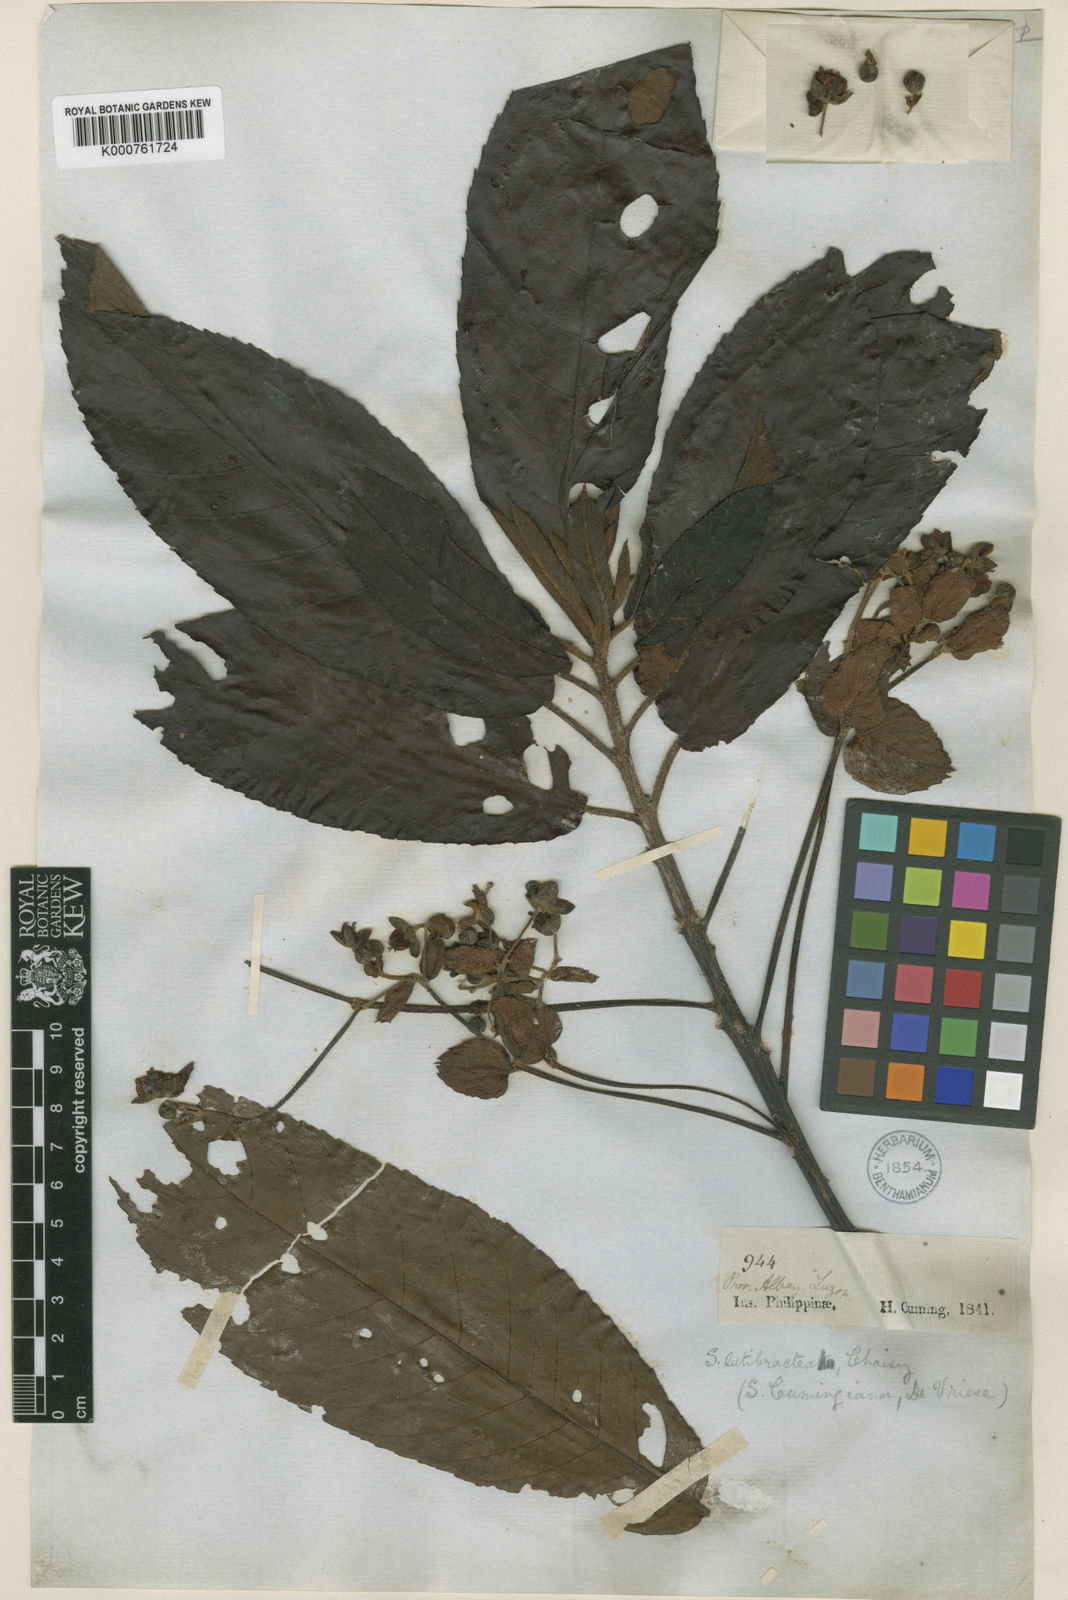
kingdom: Plantae
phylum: Tracheophyta
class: Magnoliopsida
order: Ericales
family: Actinidiaceae
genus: Saurauia
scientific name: Saurauia latibractea
